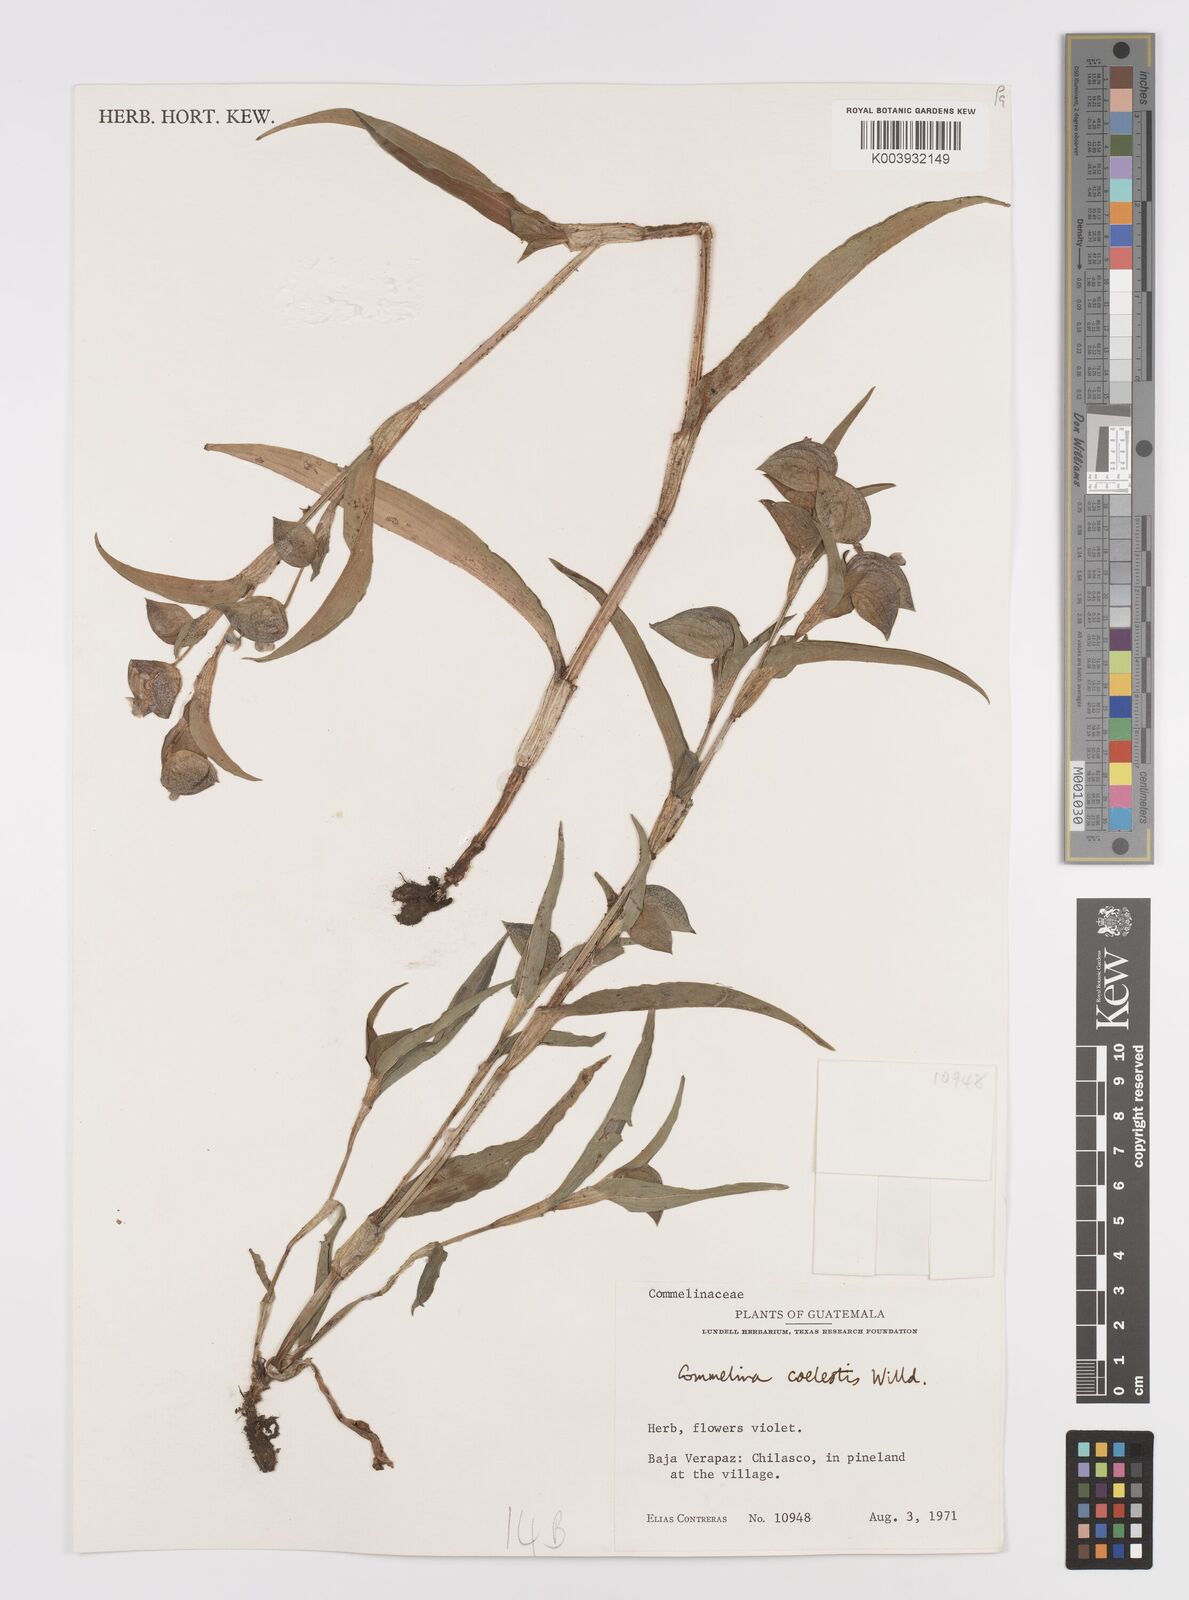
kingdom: Plantae
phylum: Tracheophyta
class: Liliopsida
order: Commelinales
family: Commelinaceae
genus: Commelina
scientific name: Commelina tuberosa
